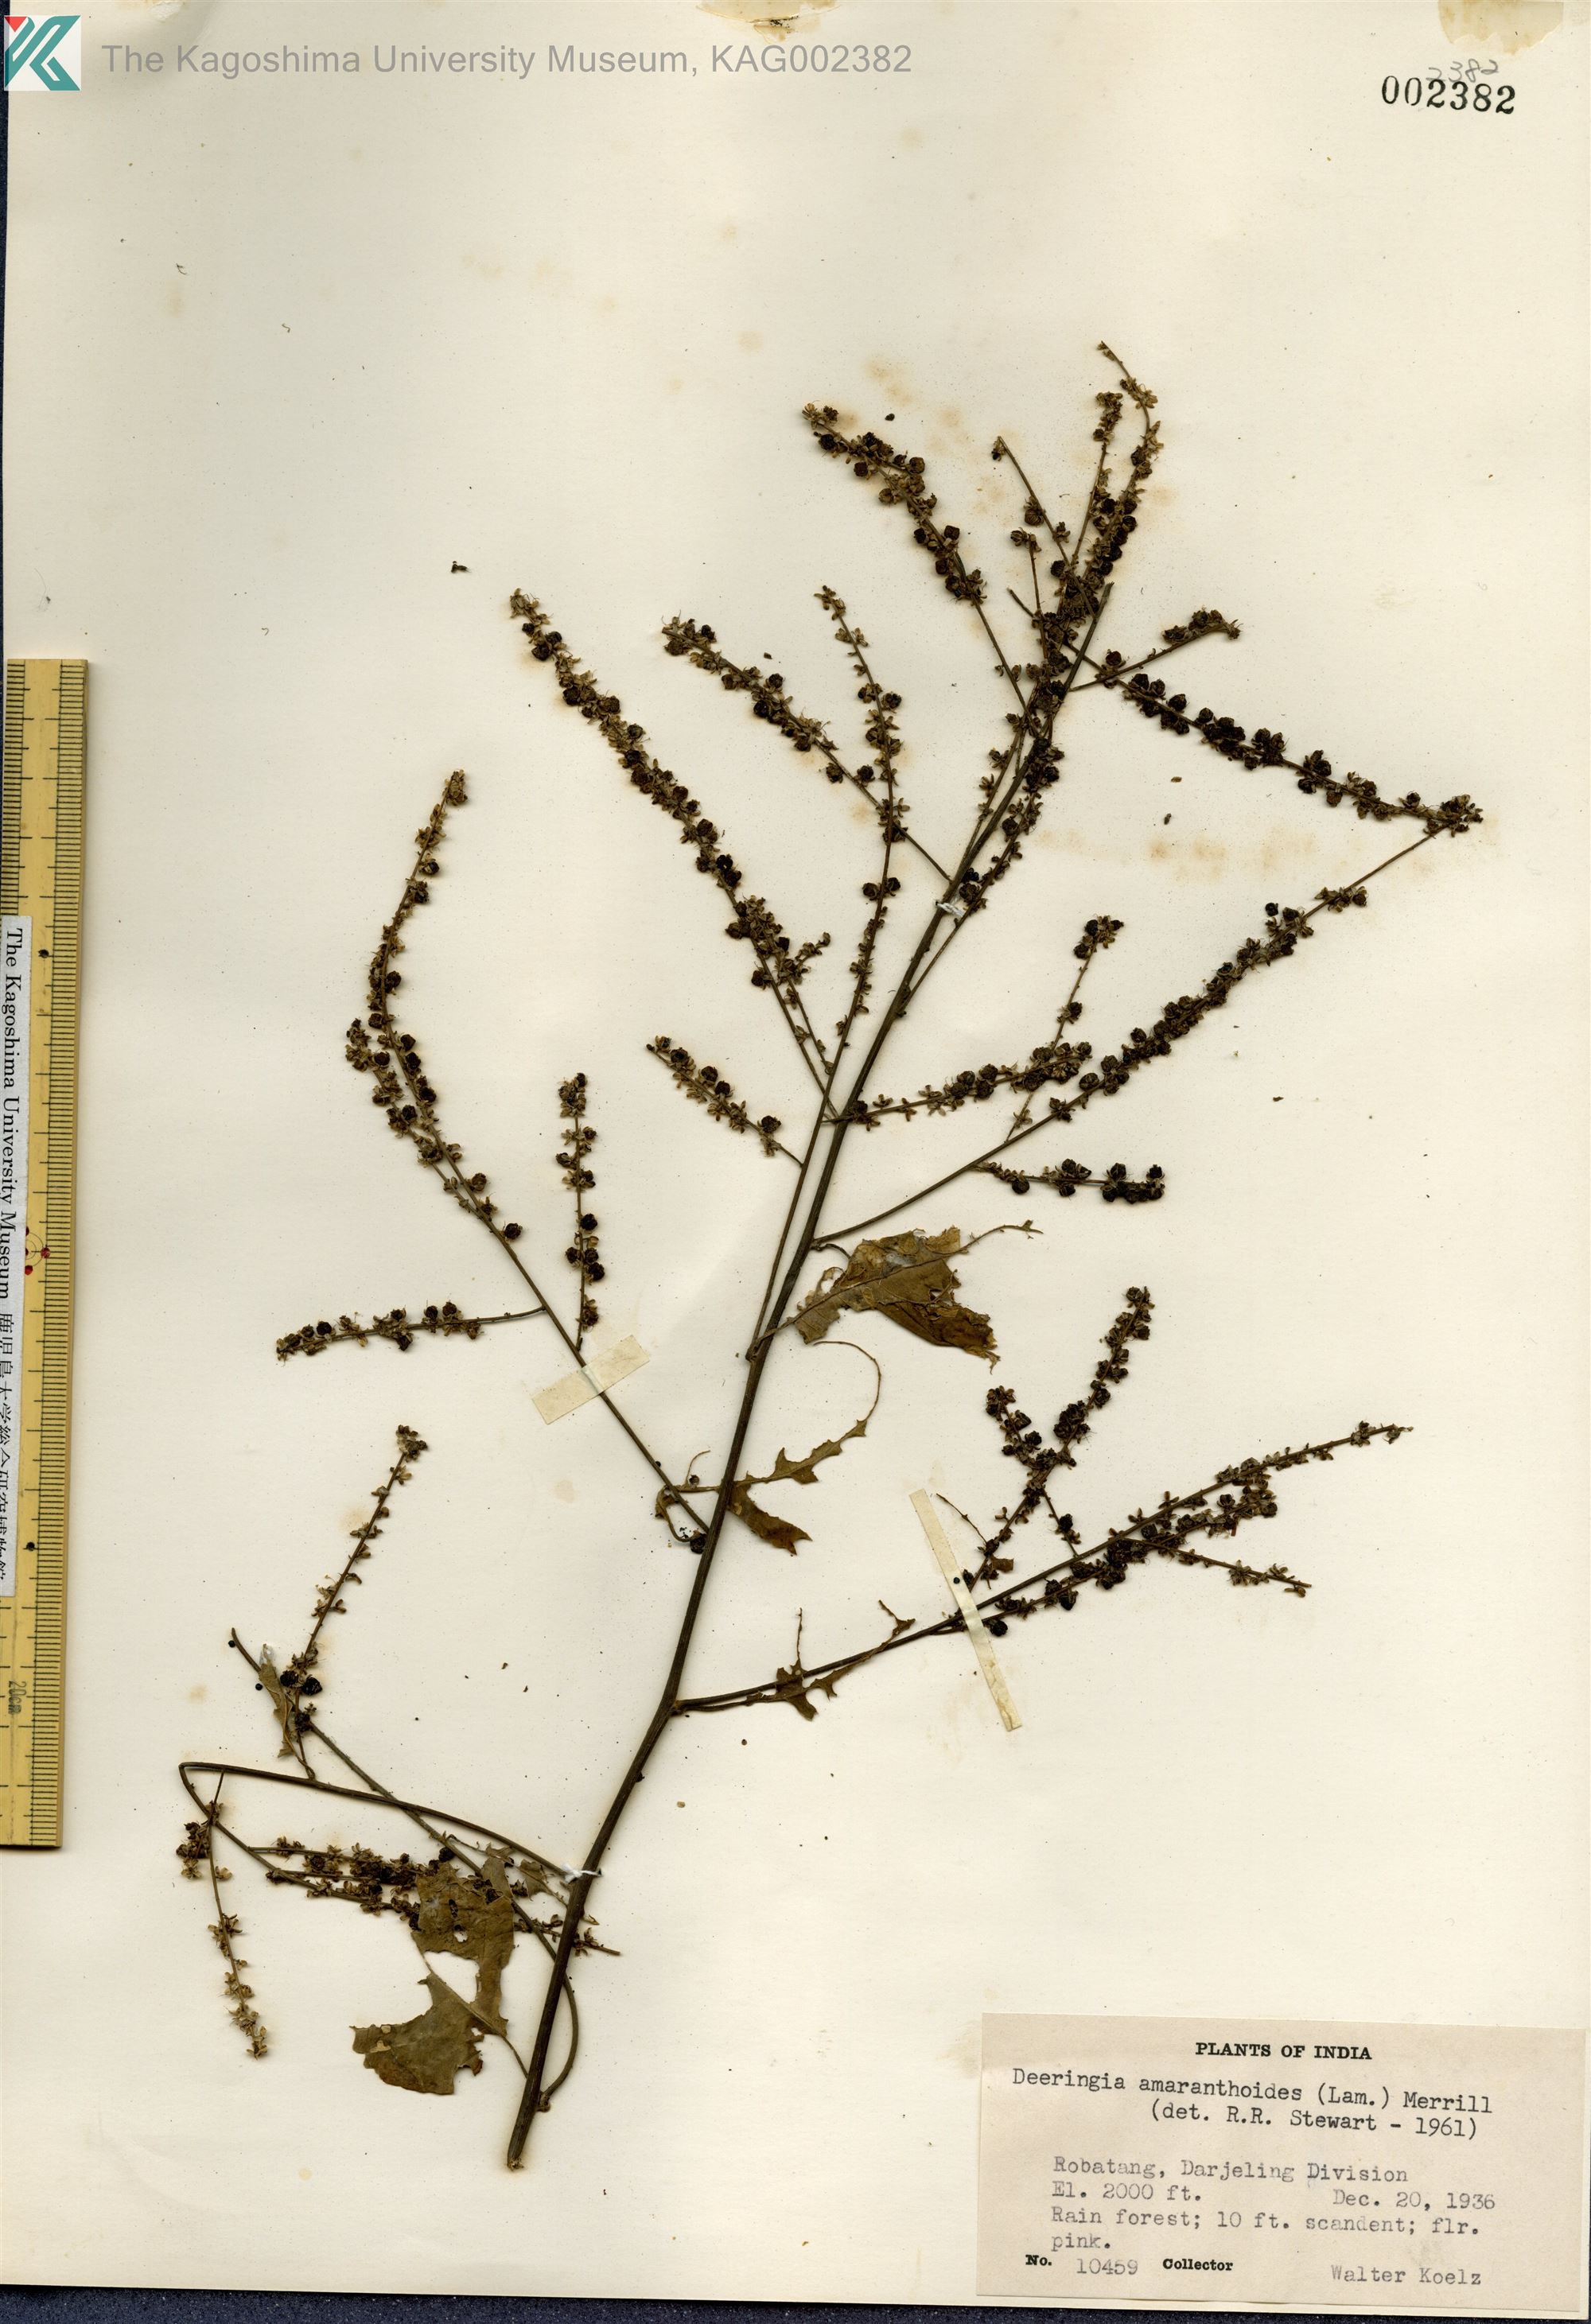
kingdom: Plantae
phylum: Tracheophyta
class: Magnoliopsida
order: Caryophyllales
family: Amaranthaceae
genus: Deeringia
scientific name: Deeringia amaranthoides
